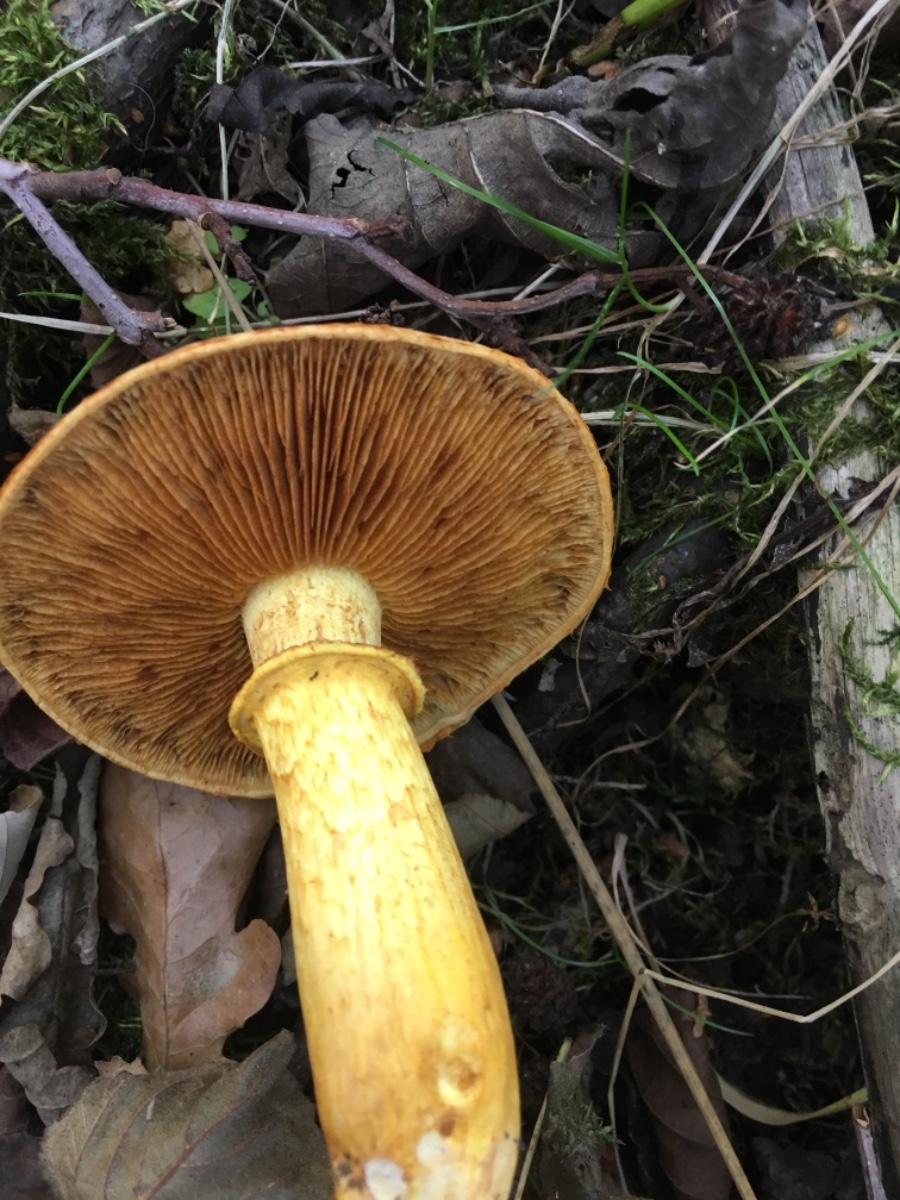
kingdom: Fungi
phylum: Basidiomycota
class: Agaricomycetes
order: Agaricales
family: Hymenogastraceae
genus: Gymnopilus
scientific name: Gymnopilus spectabilis
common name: fibret flammehat
